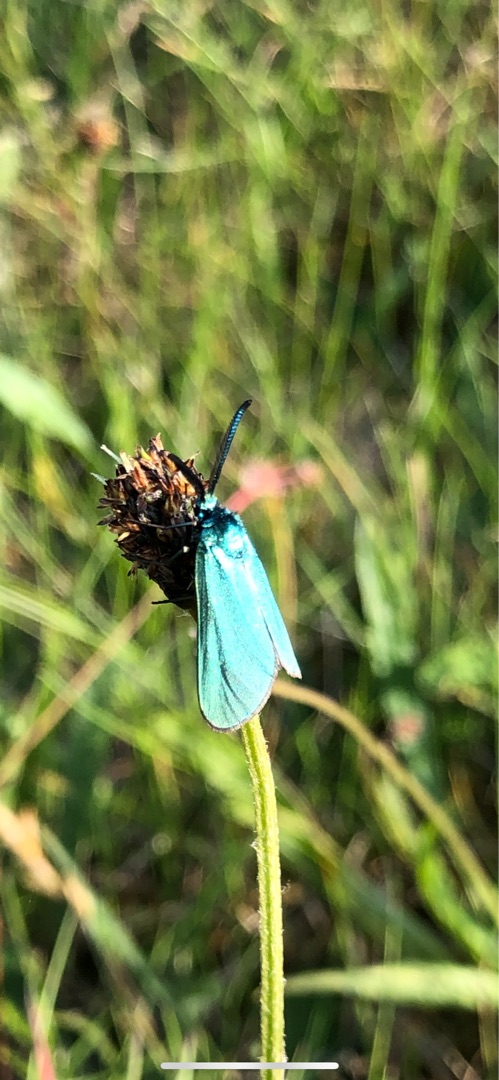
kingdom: Animalia
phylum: Arthropoda
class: Insecta
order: Lepidoptera
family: Zygaenidae
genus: Adscita
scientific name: Adscita statices
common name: Metalvinge
